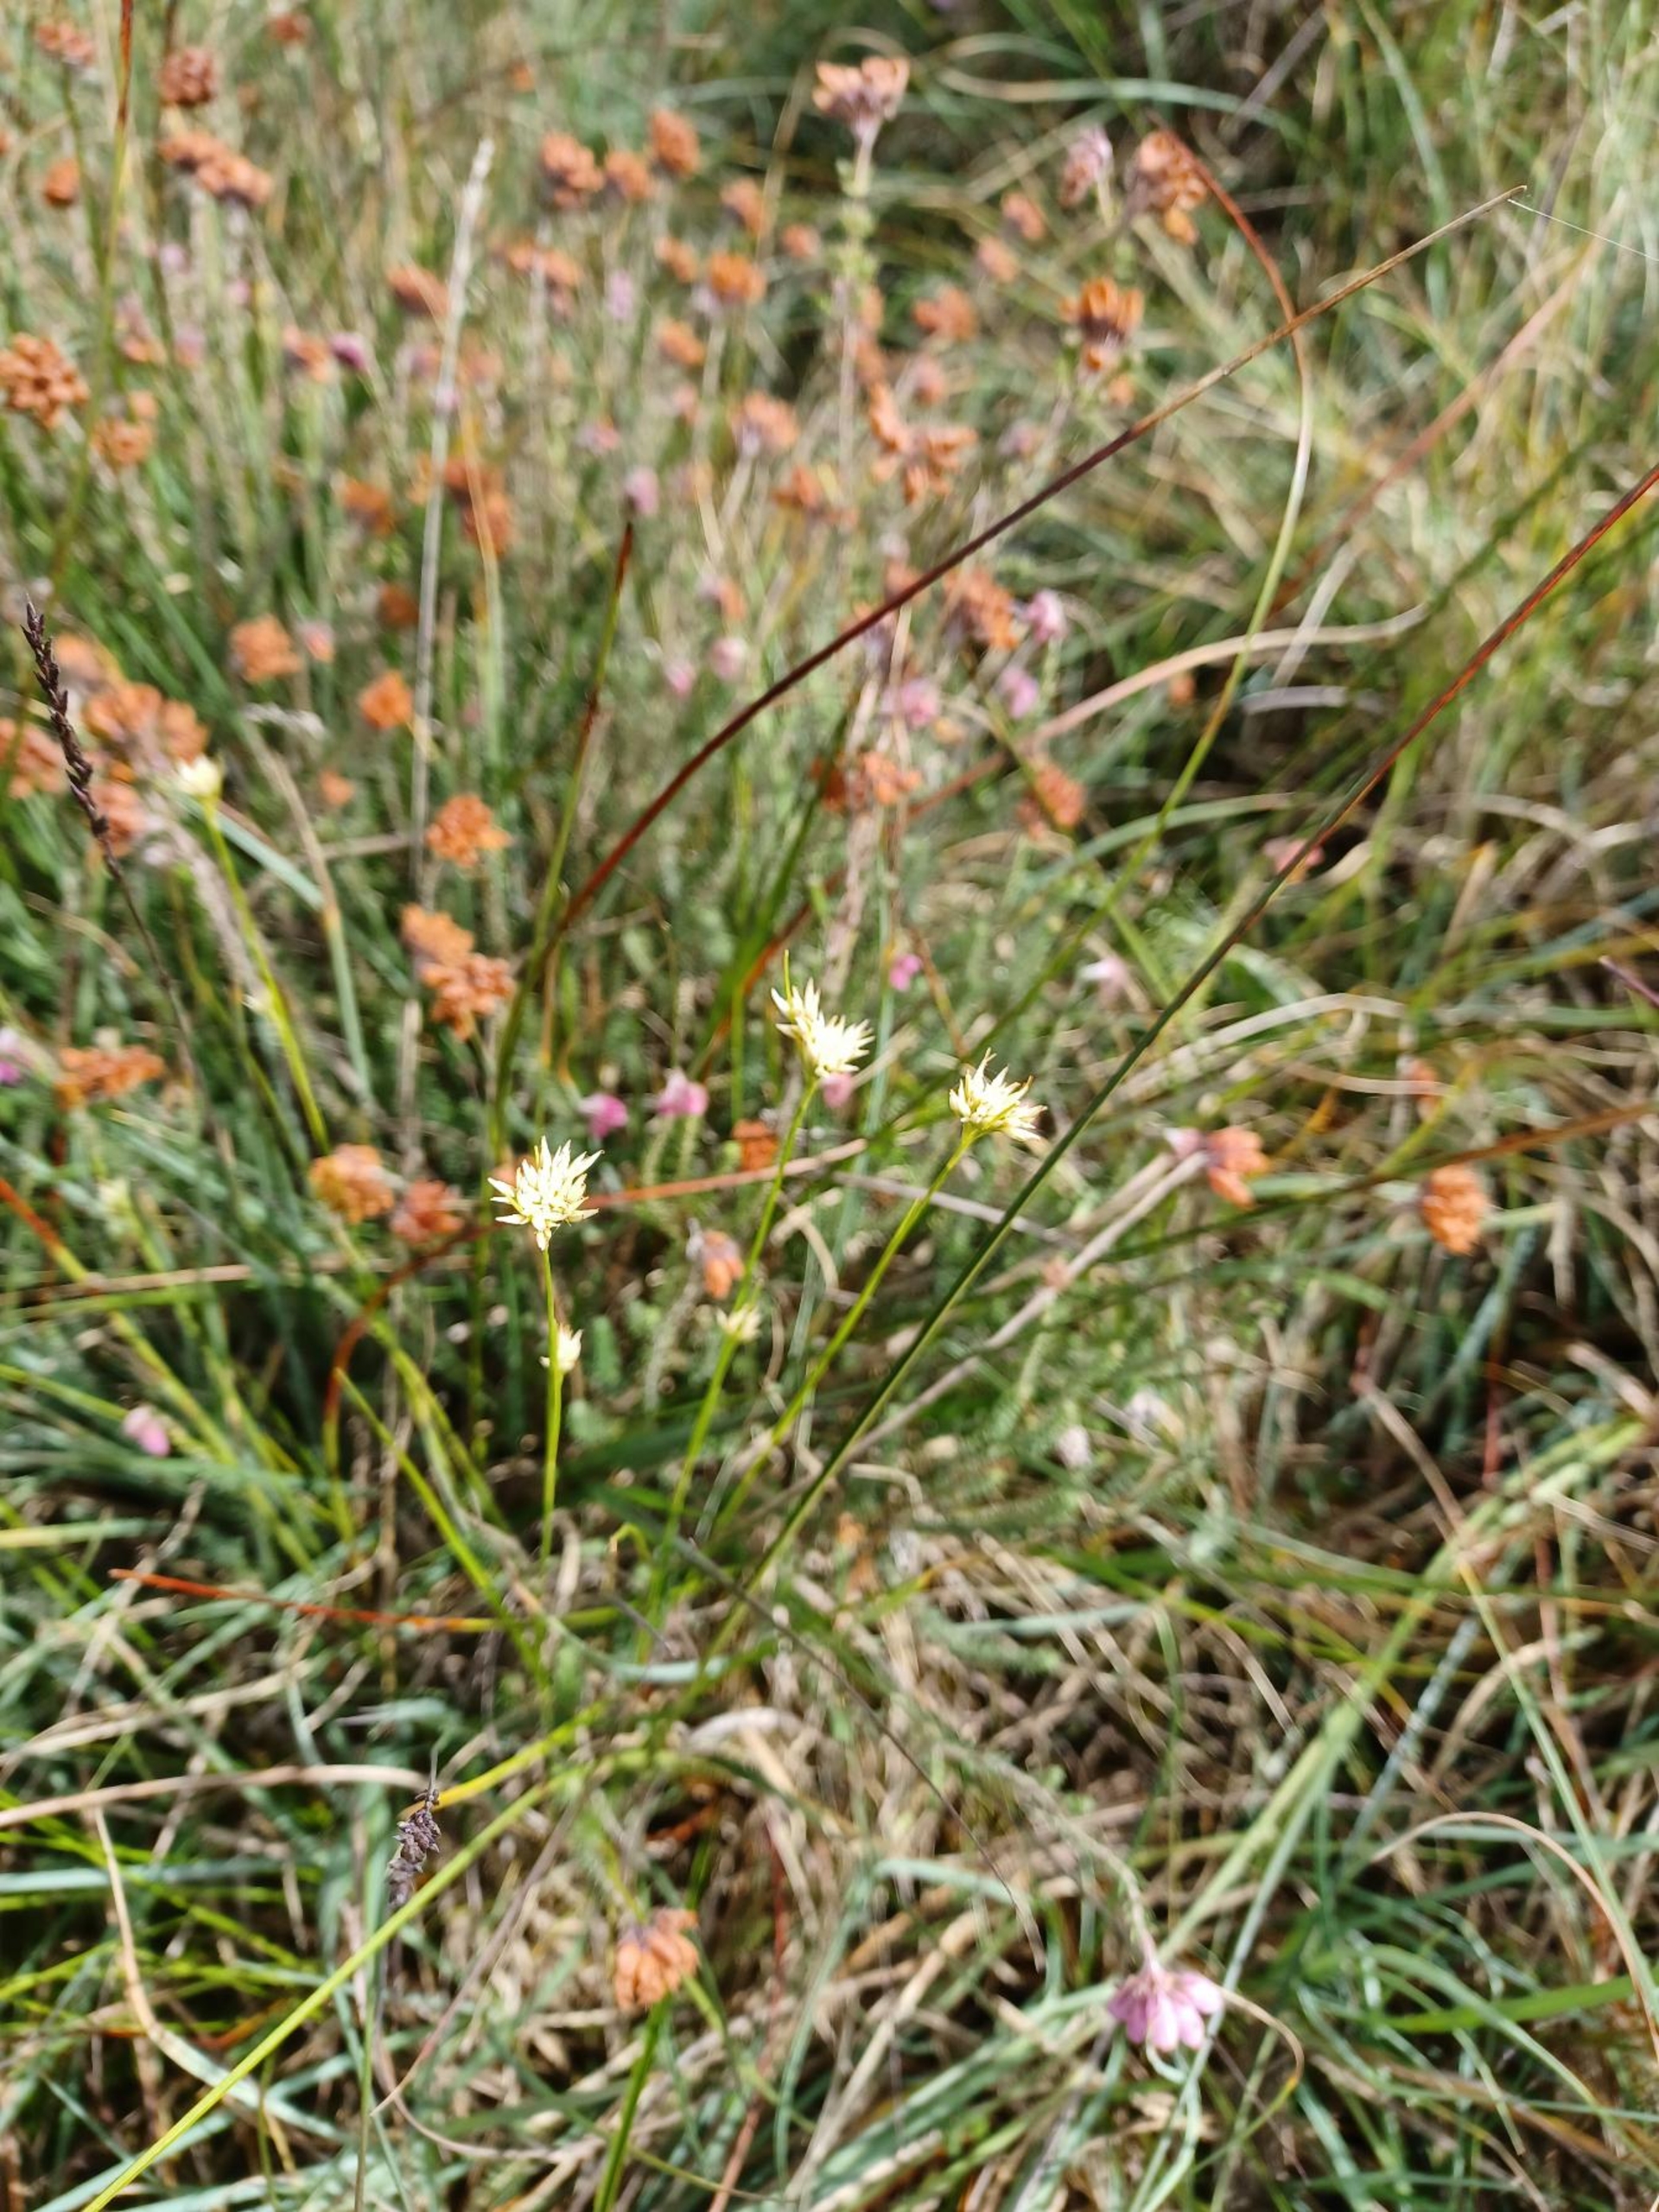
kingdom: Plantae
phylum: Tracheophyta
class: Liliopsida
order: Poales
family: Cyperaceae
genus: Rhynchospora
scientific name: Rhynchospora alba
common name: Hvid næbfrø
